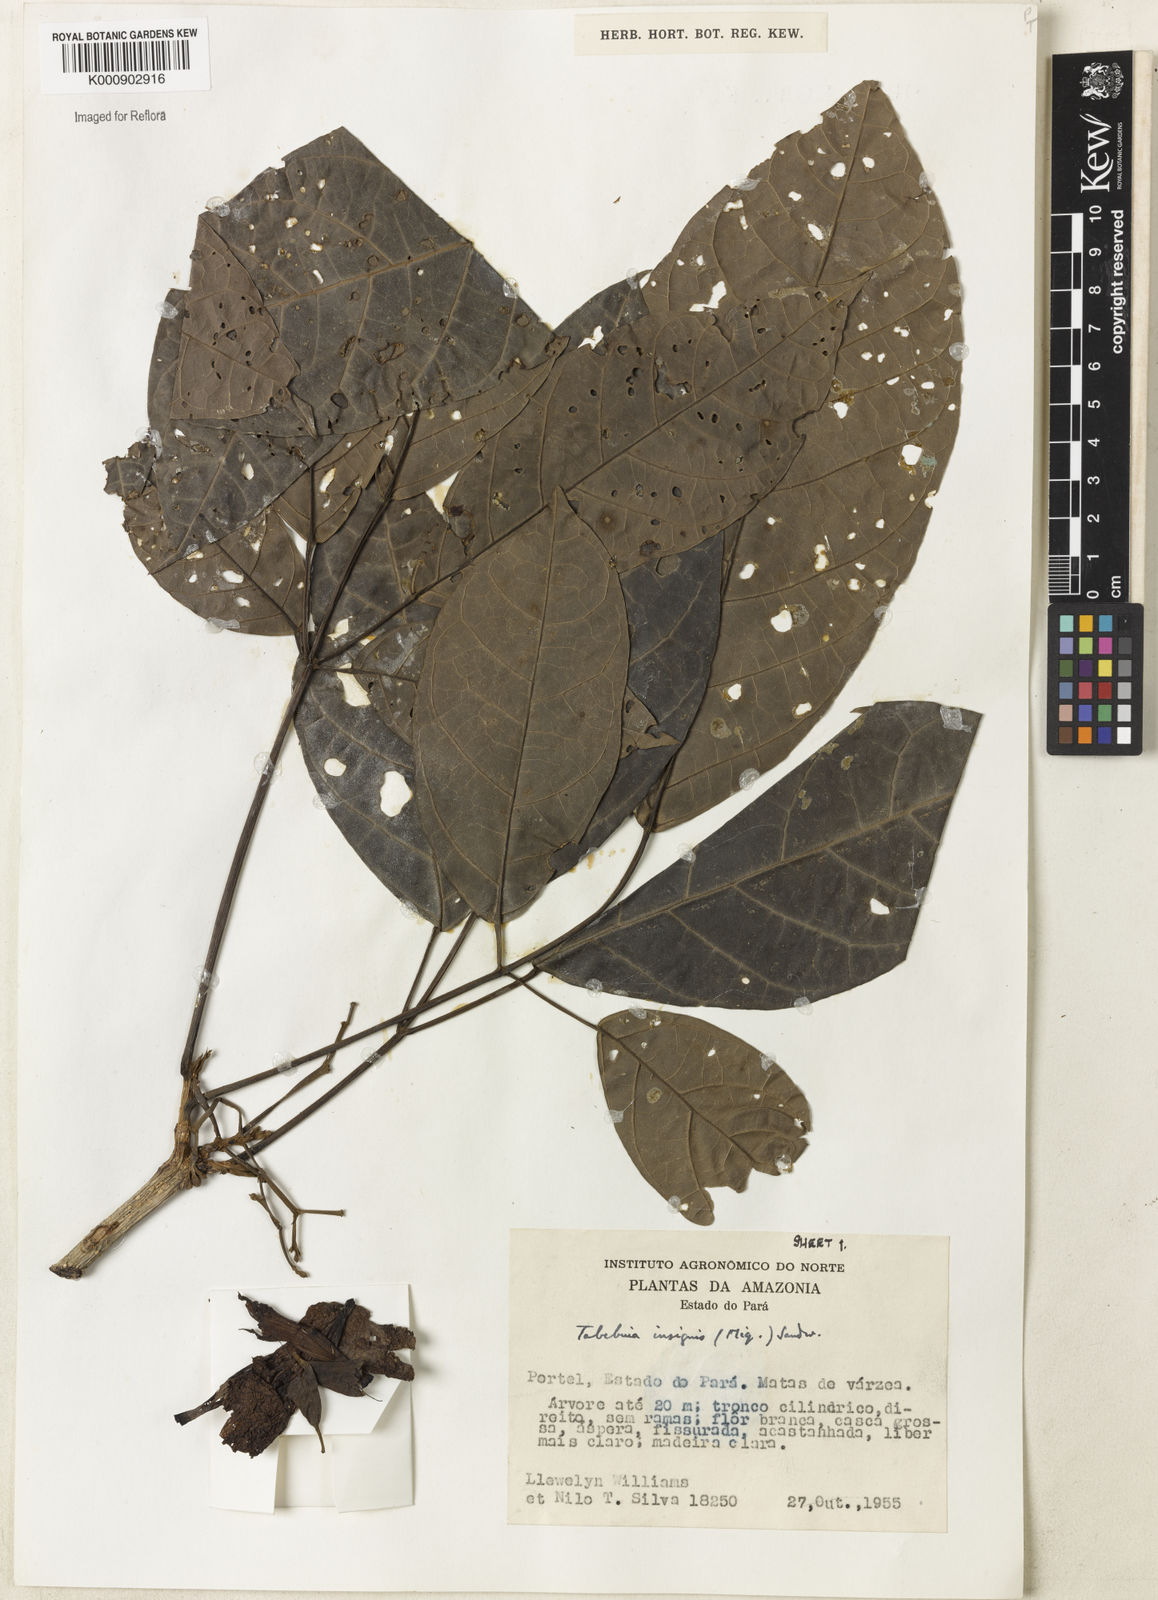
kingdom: Plantae
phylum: Tracheophyta
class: Magnoliopsida
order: Lamiales
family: Bignoniaceae
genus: Tabebuia
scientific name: Tabebuia insignis
